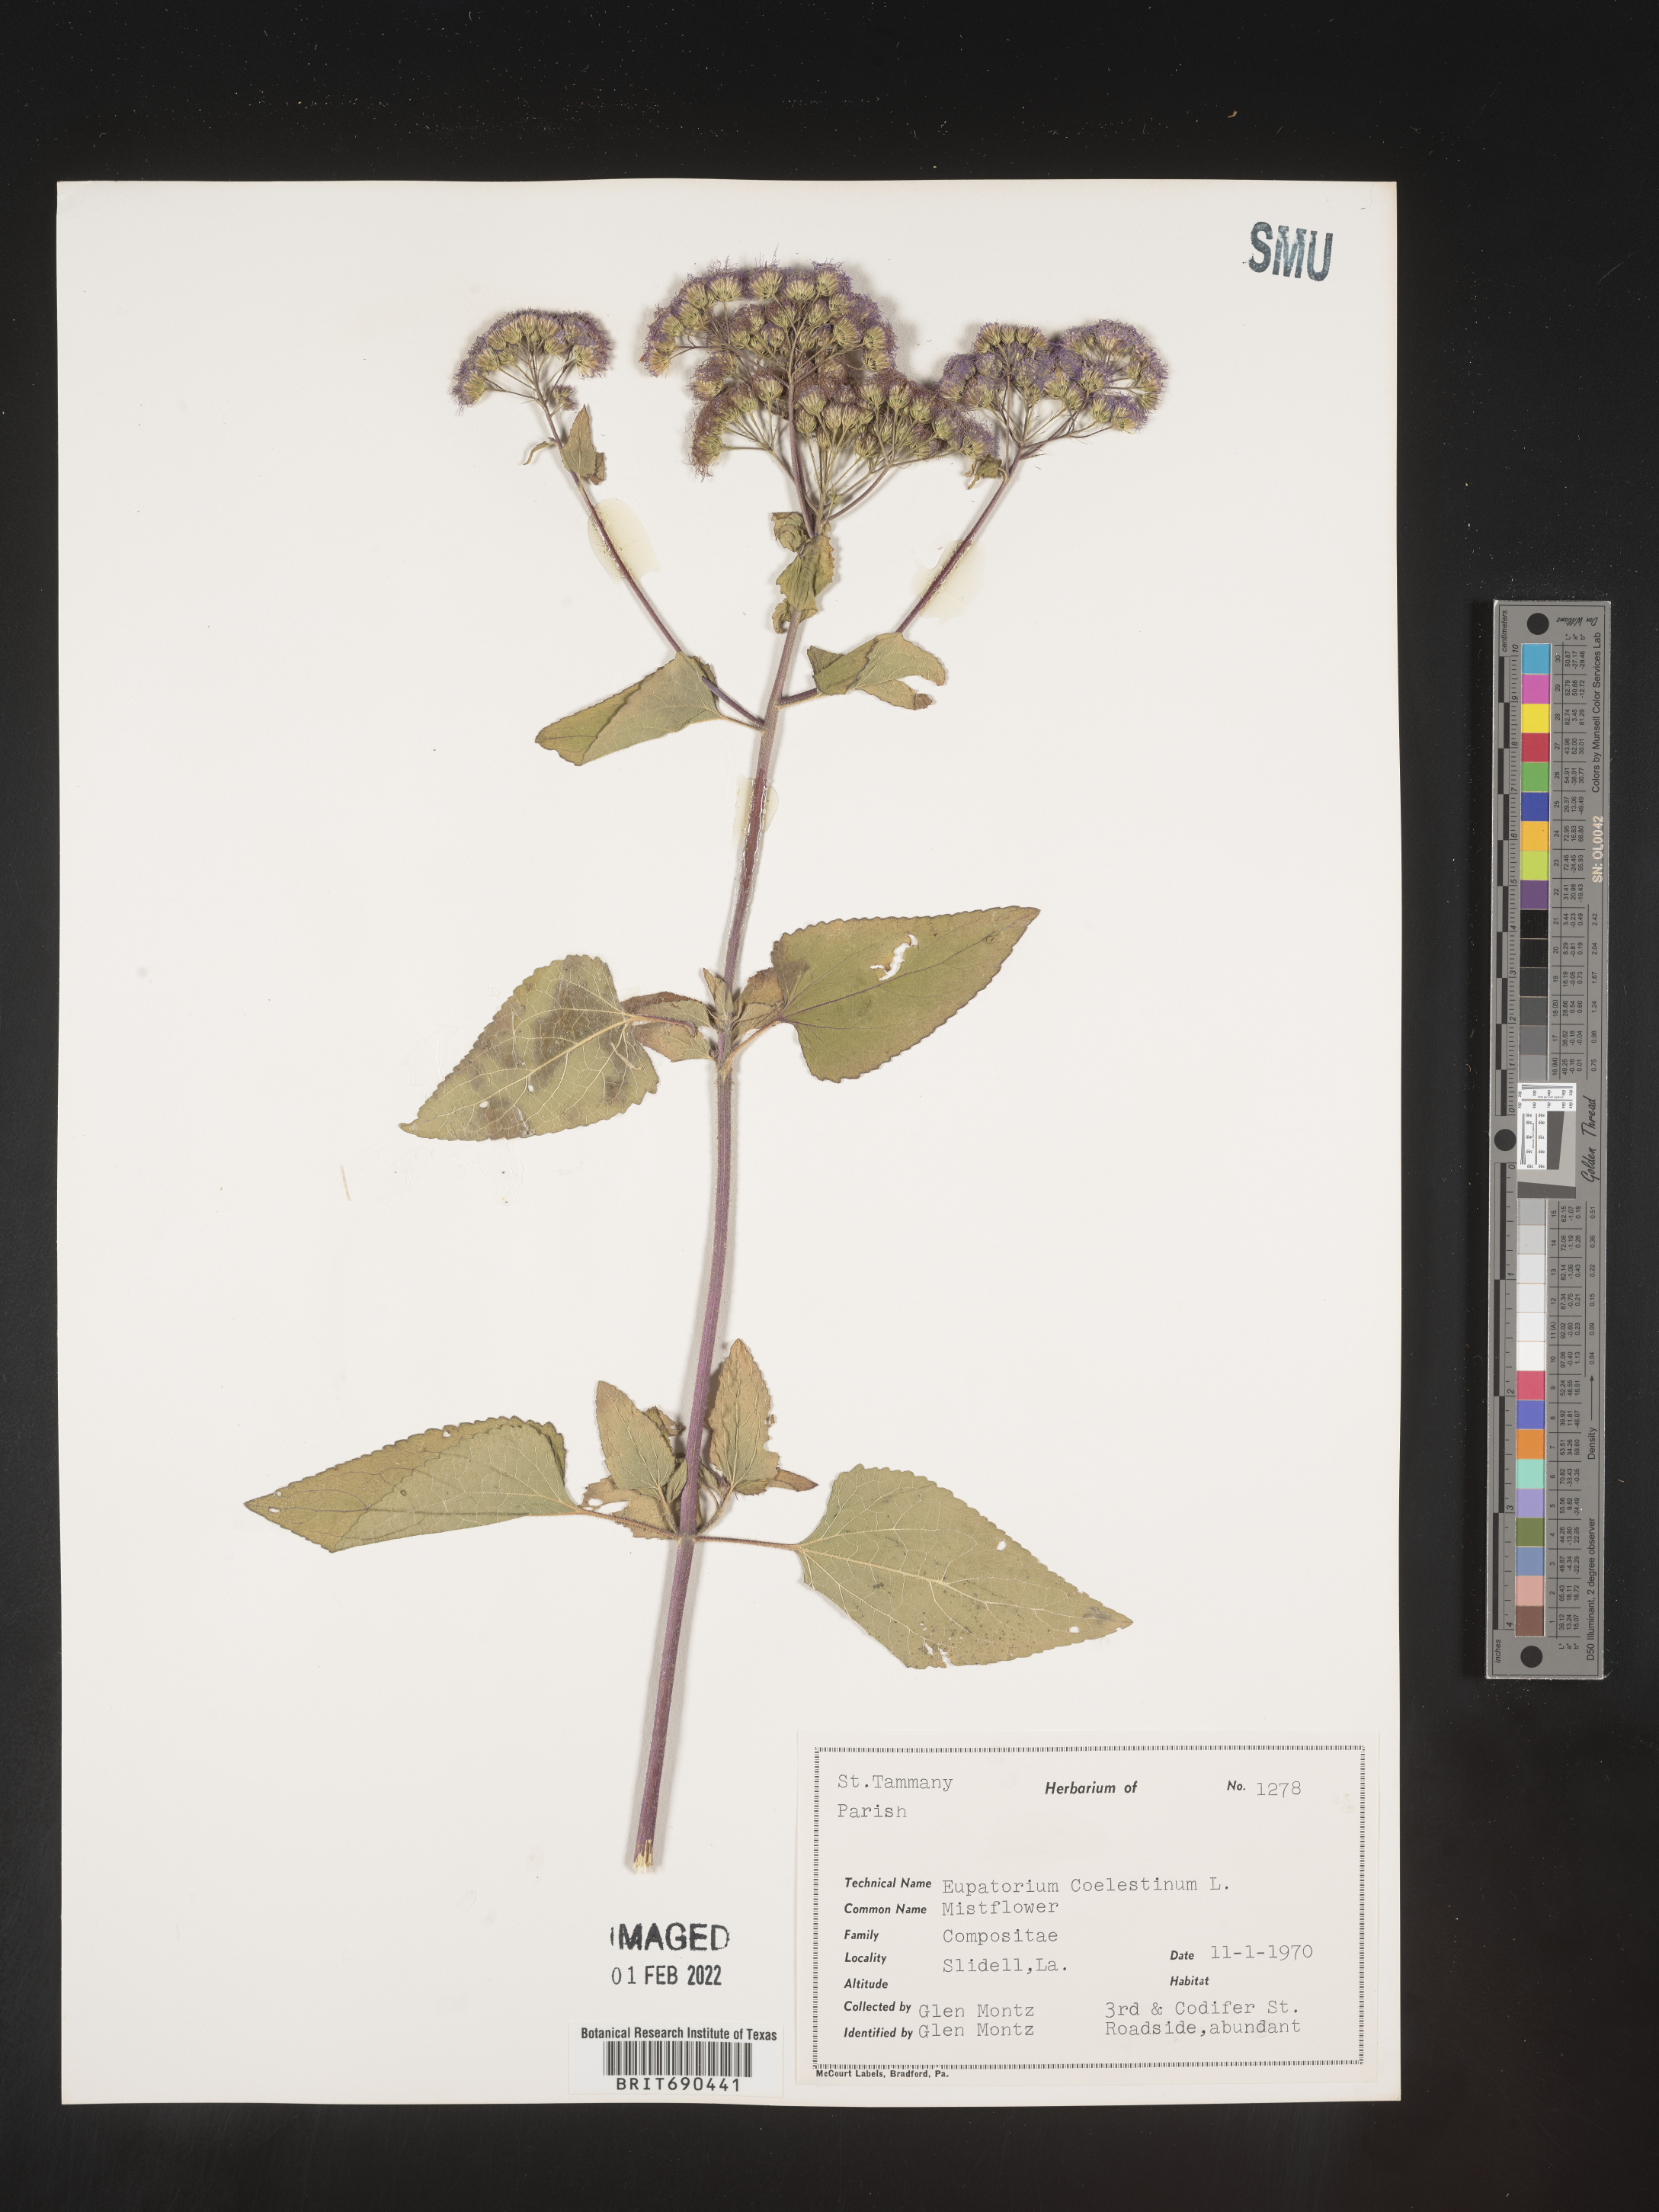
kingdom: Plantae
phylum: Tracheophyta
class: Magnoliopsida
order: Asterales
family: Asteraceae
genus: Conoclinium
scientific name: Conoclinium coelestinum
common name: Blue mistflower
